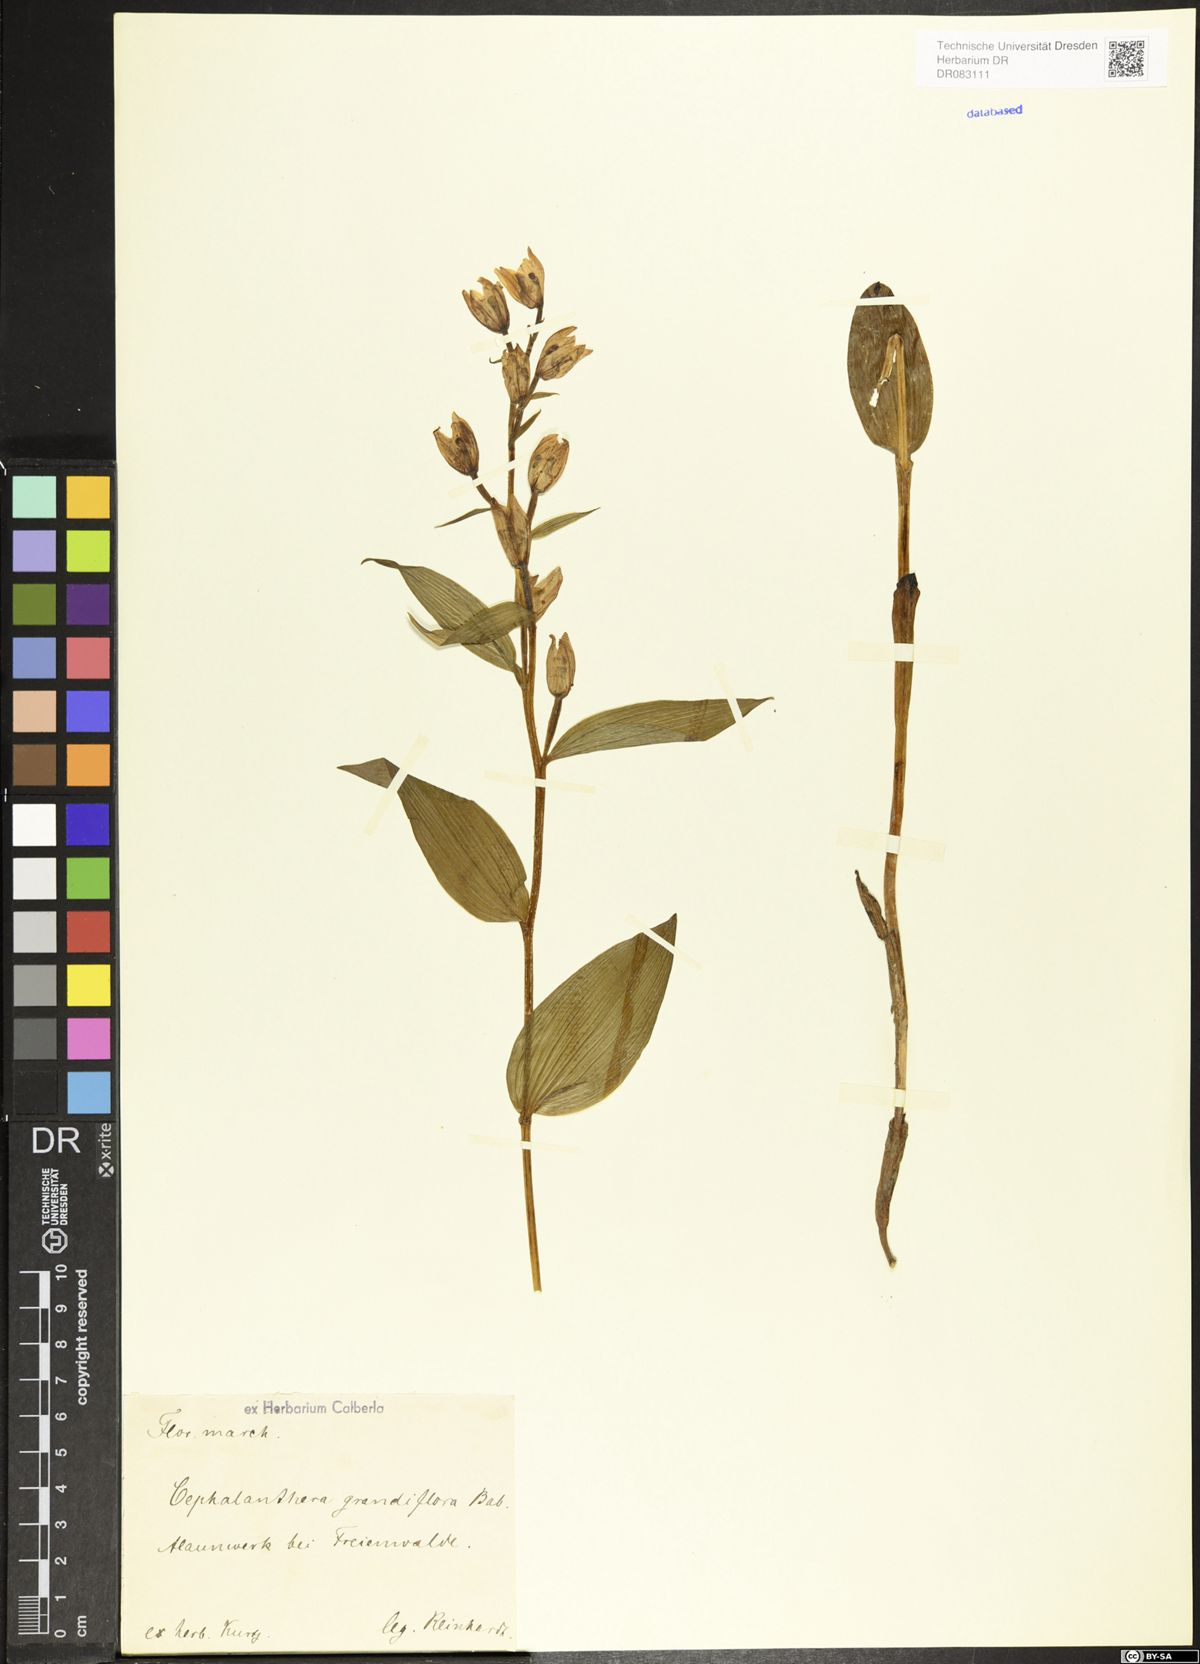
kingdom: Plantae
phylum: Tracheophyta
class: Liliopsida
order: Asparagales
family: Orchidaceae
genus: Cephalanthera
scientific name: Cephalanthera longifolia
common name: Narrow-leaved helleborine
